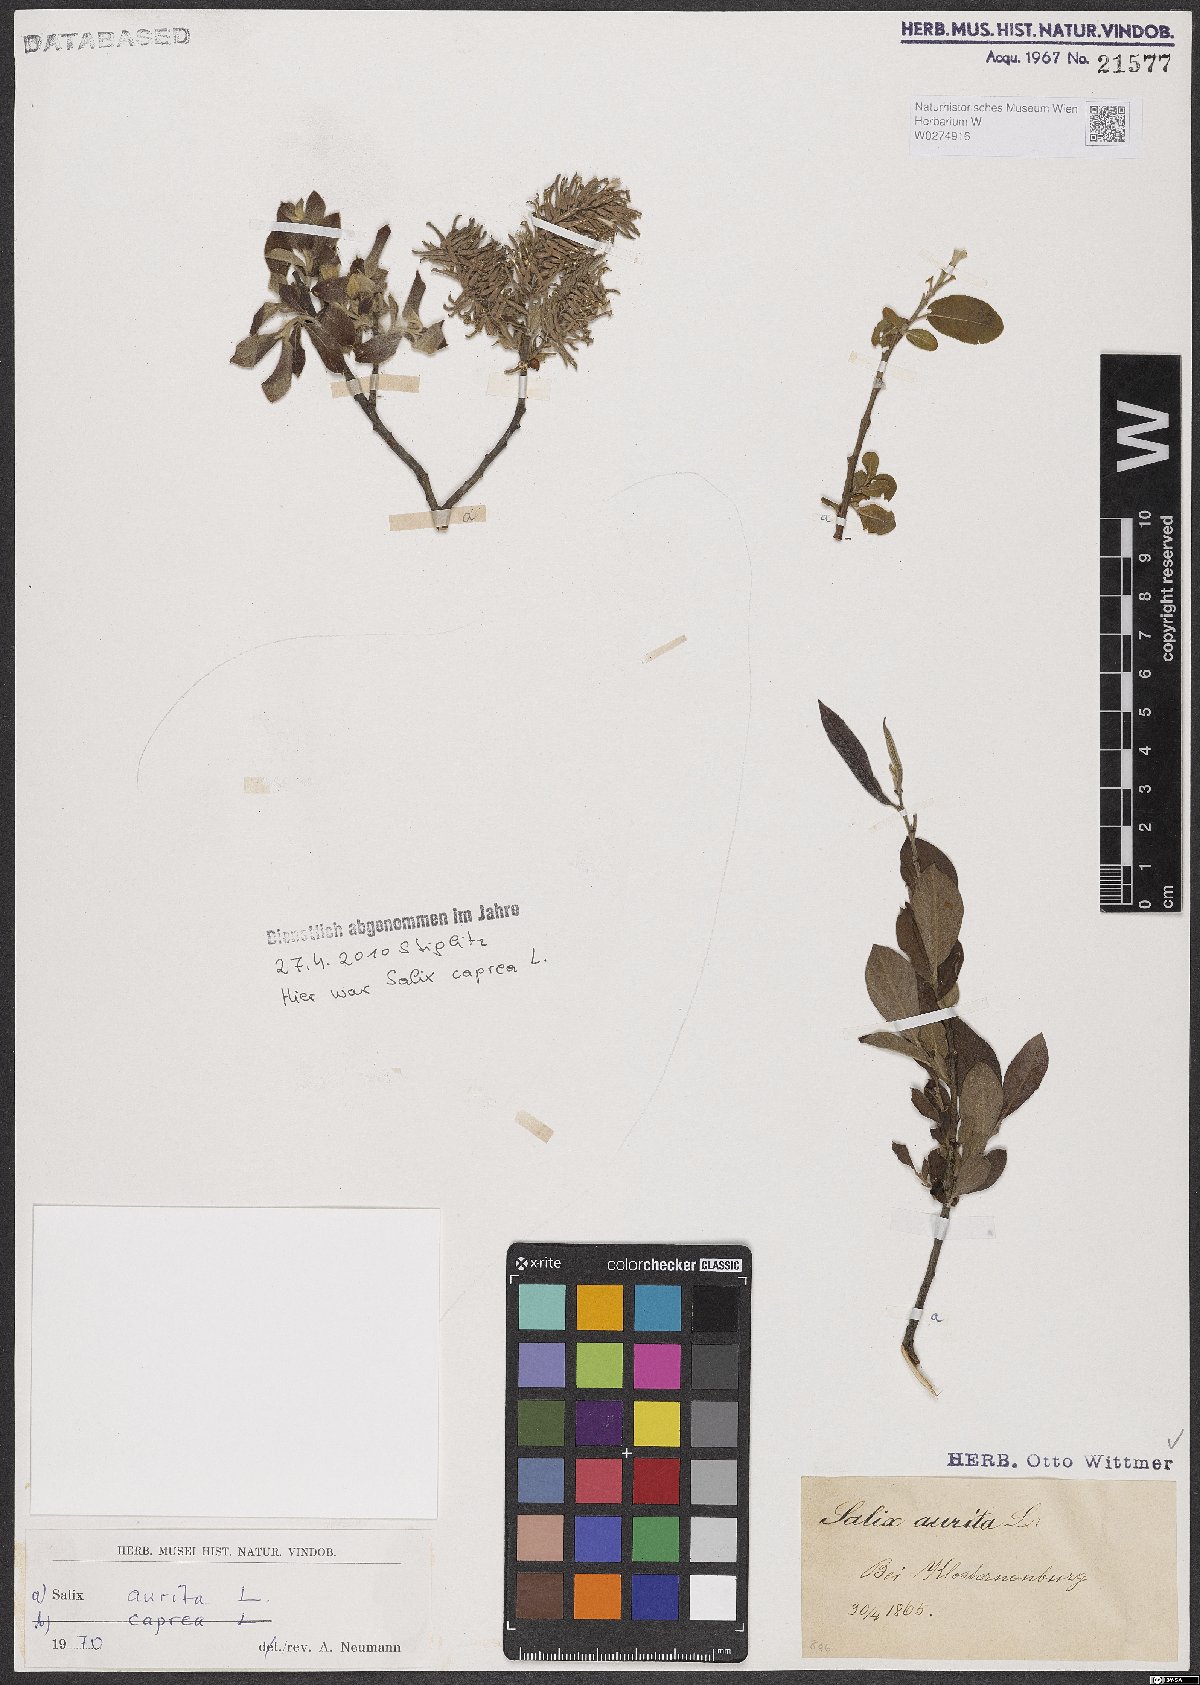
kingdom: Plantae
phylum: Tracheophyta
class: Magnoliopsida
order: Malpighiales
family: Salicaceae
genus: Salix
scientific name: Salix aurita
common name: Eared willow
